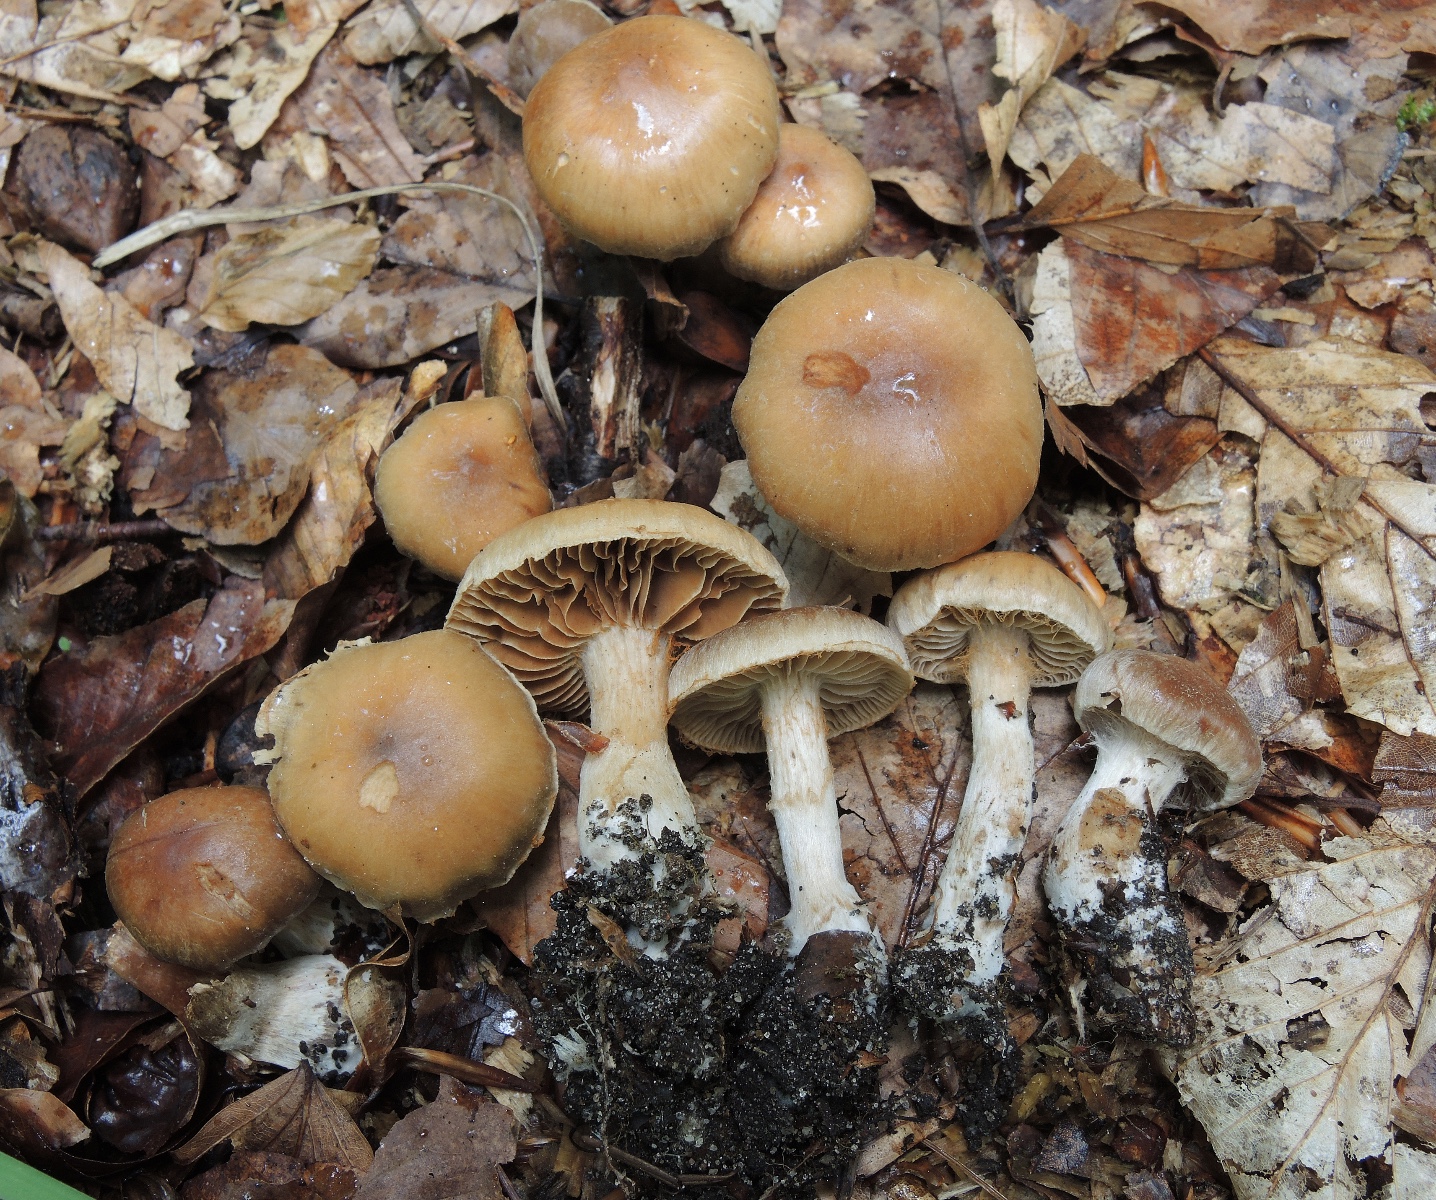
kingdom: Fungi
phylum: Basidiomycota
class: Agaricomycetes
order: Agaricales
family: Cortinariaceae
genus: Cortinarius
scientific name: Cortinarius epipurrus
